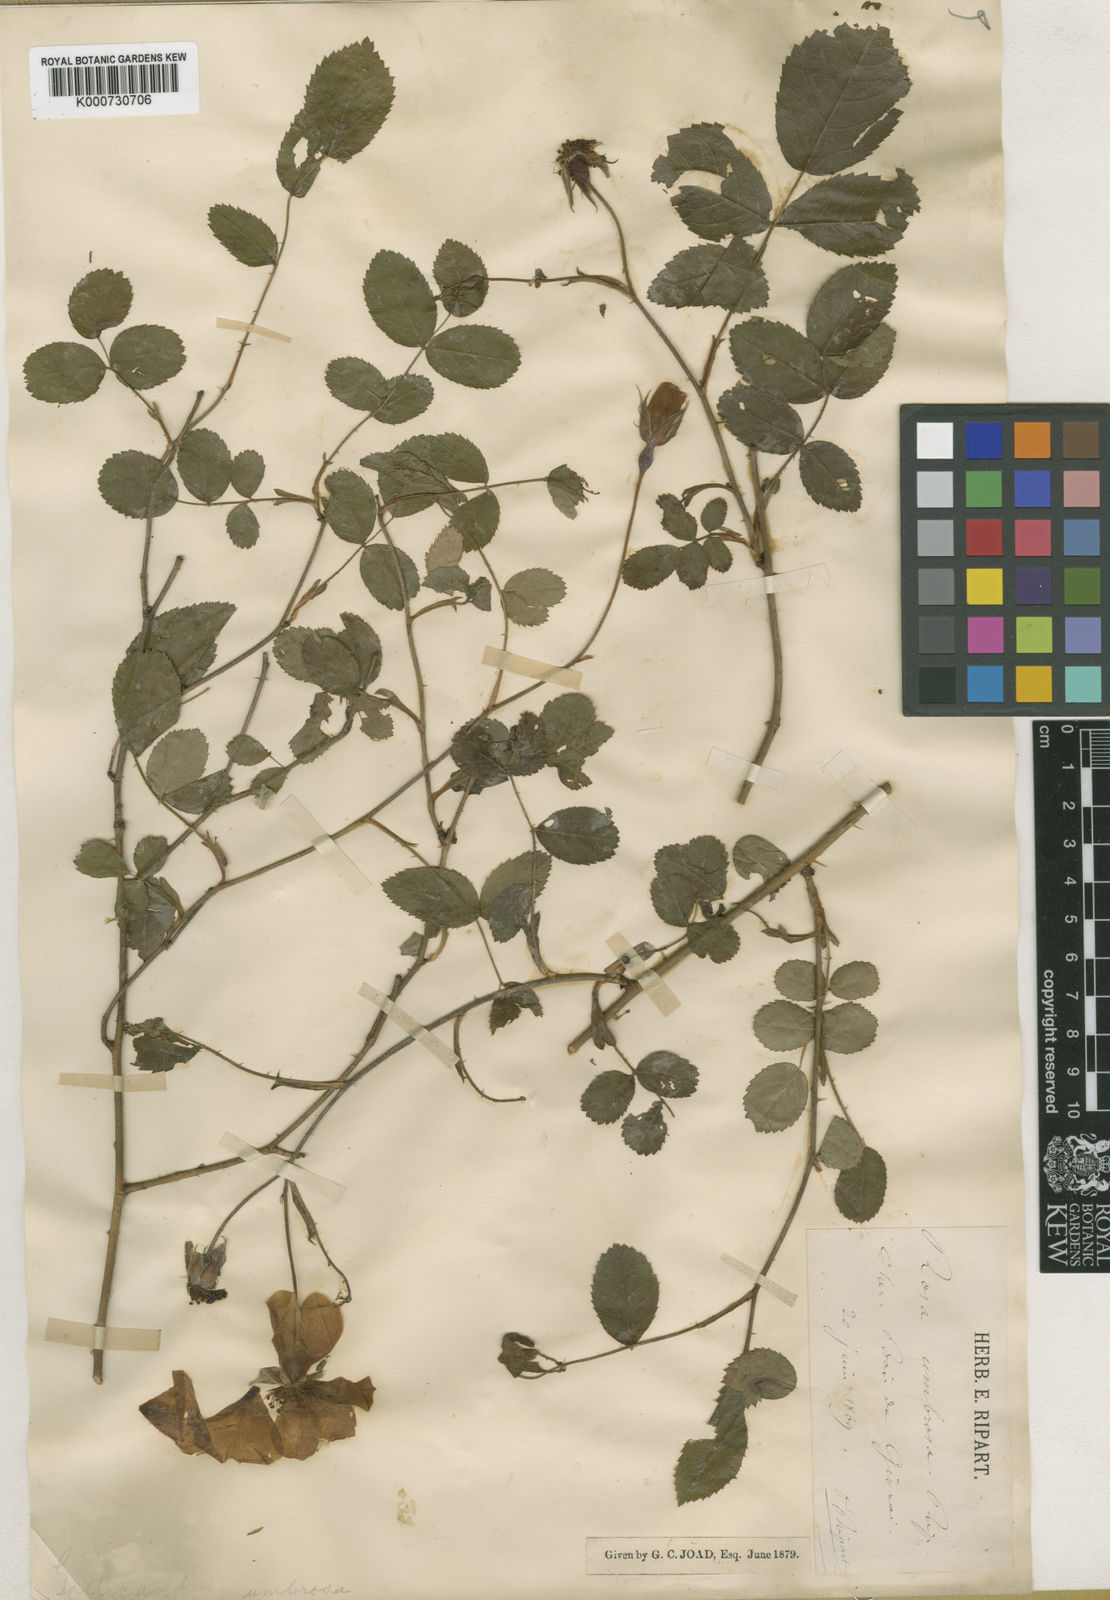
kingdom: Plantae
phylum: Tracheophyta
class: Magnoliopsida
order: Rosales
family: Rosaceae
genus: Rosa
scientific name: Rosa
